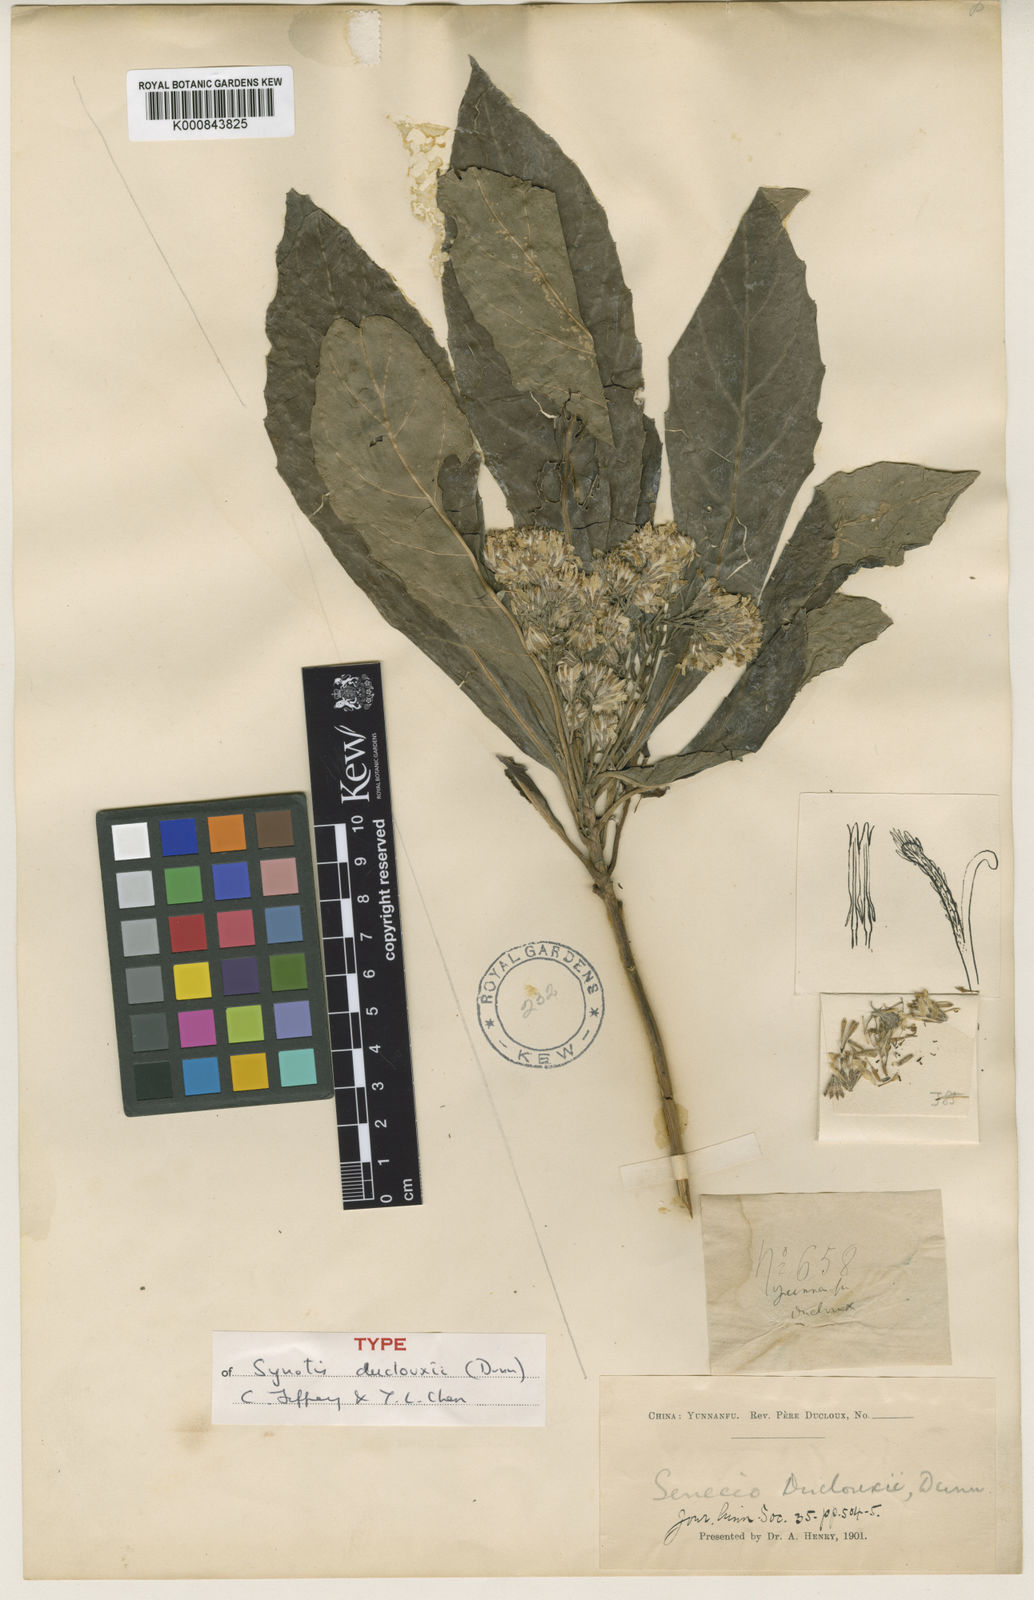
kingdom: Plantae
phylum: Tracheophyta
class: Magnoliopsida
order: Asterales
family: Asteraceae
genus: Synotis
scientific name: Synotis duclouxii
